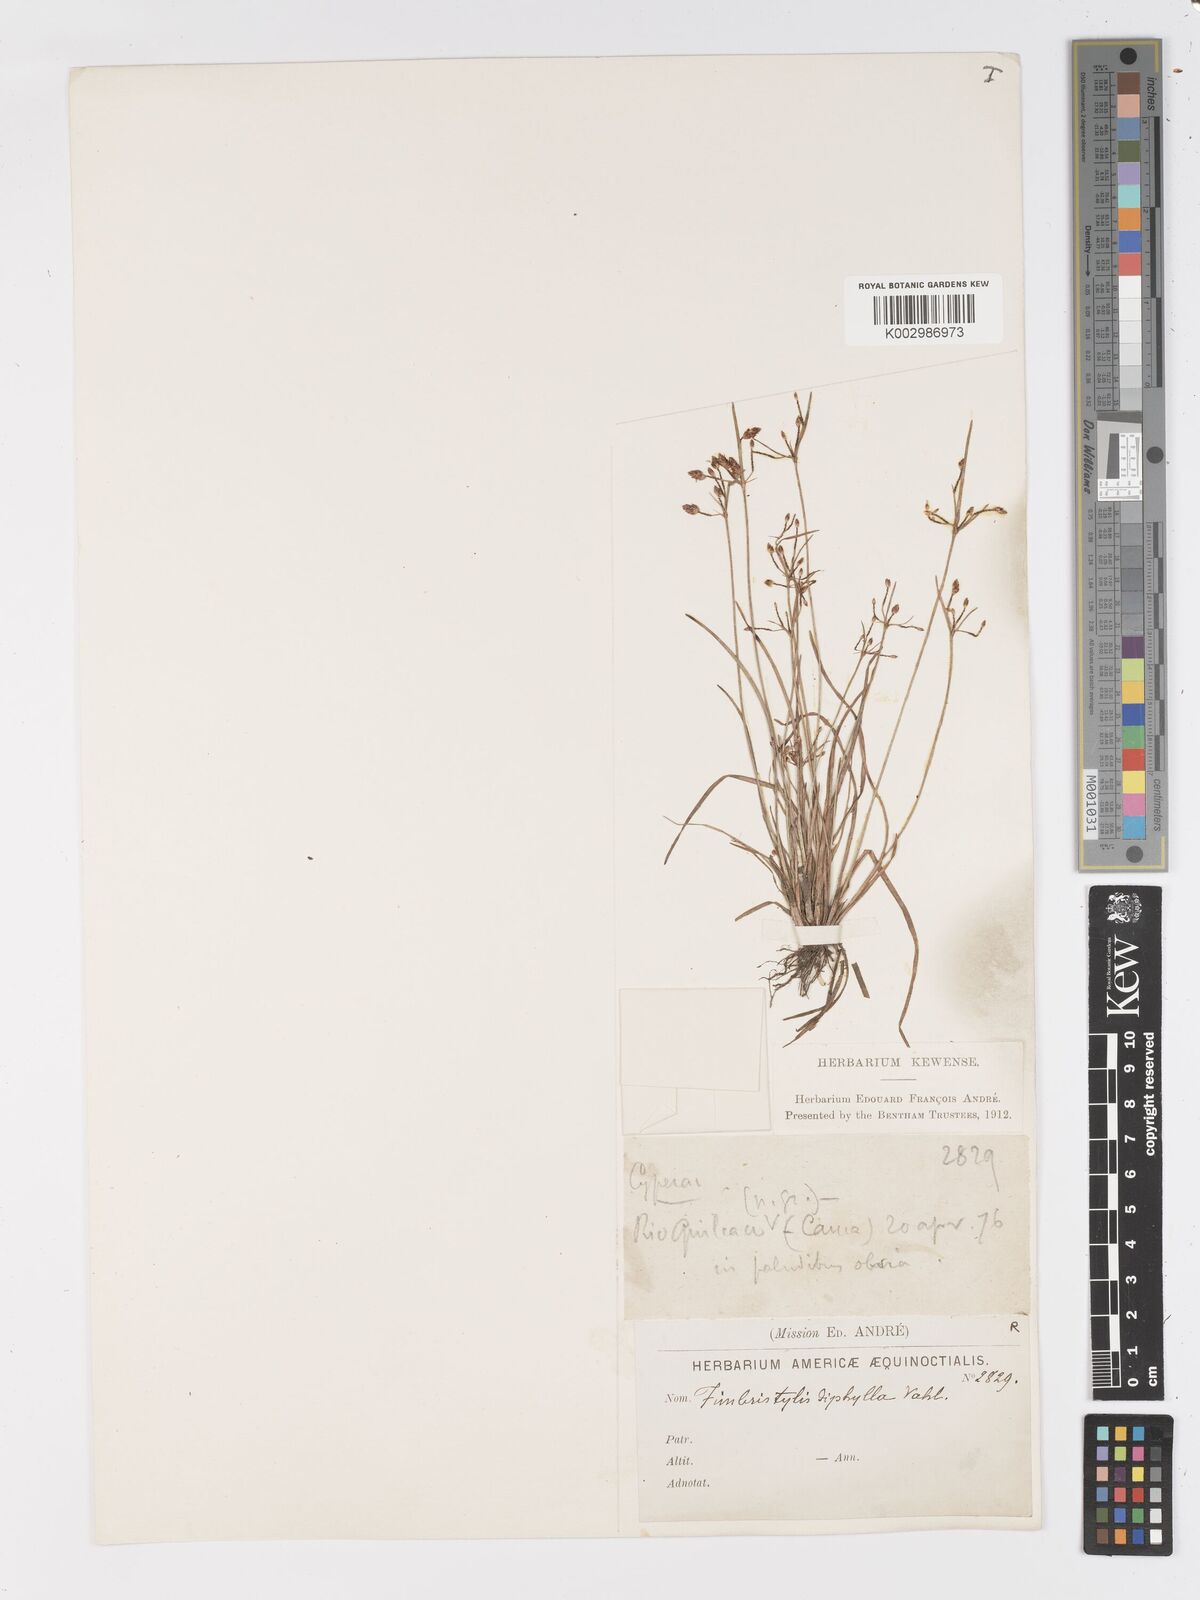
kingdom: Plantae
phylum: Tracheophyta
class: Liliopsida
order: Poales
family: Cyperaceae
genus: Fimbristylis
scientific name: Fimbristylis dichotoma
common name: Forked fimbry
